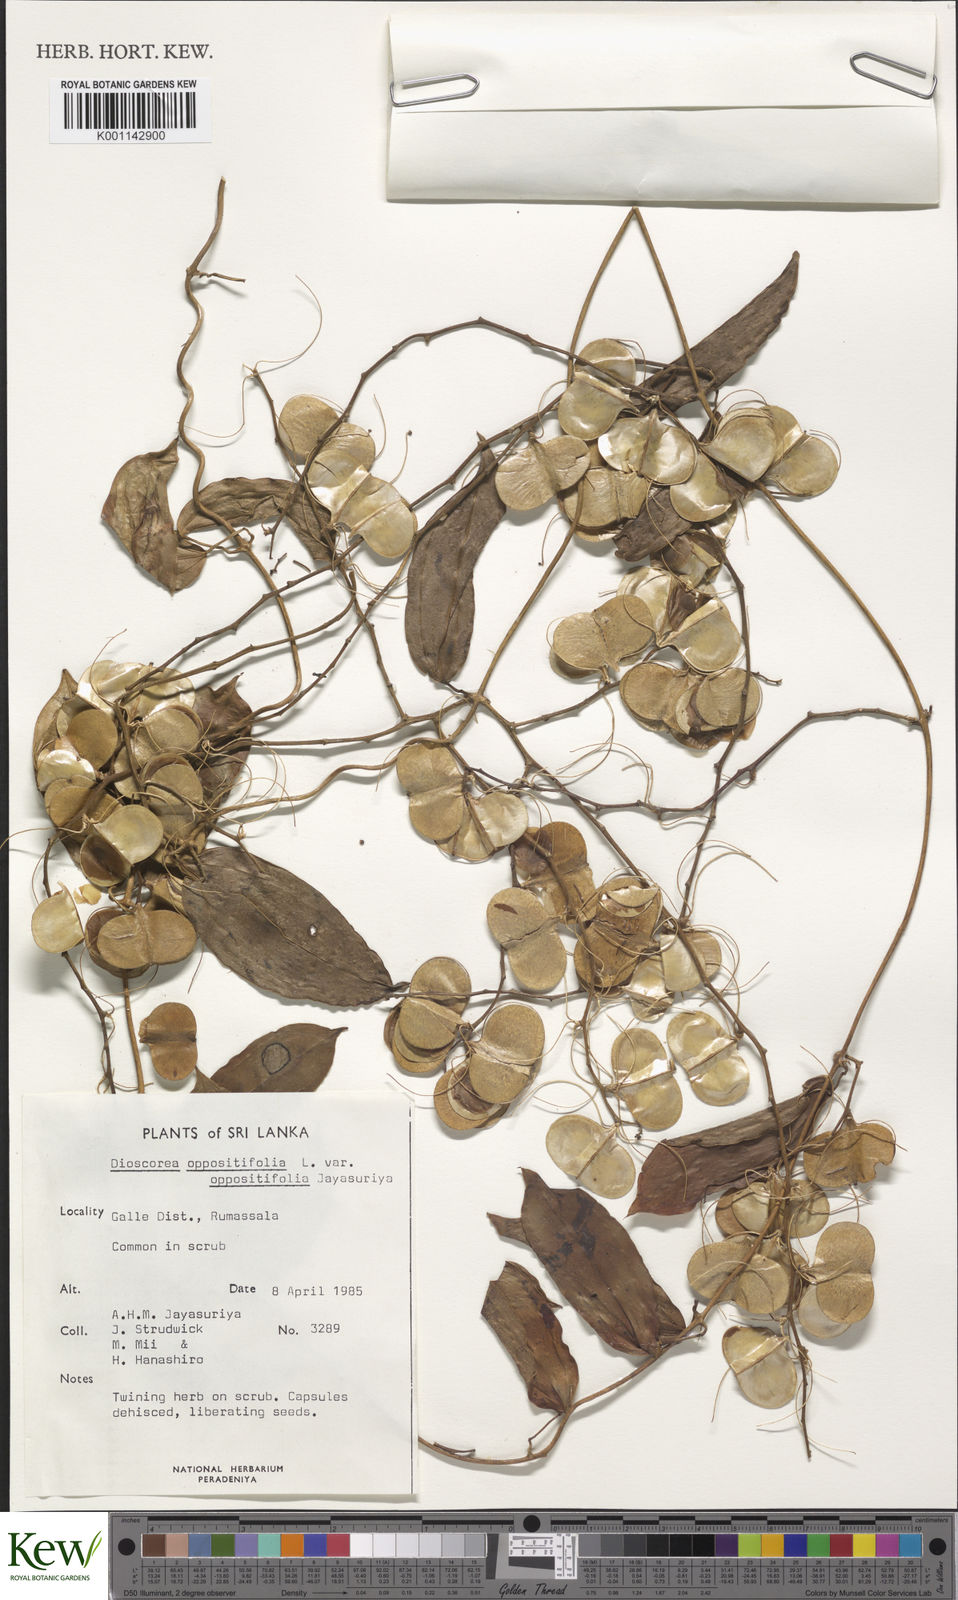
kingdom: Plantae
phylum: Tracheophyta
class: Liliopsida
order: Dioscoreales
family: Dioscoreaceae
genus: Dioscorea
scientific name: Dioscorea oppositifolia
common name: Chinese yam
